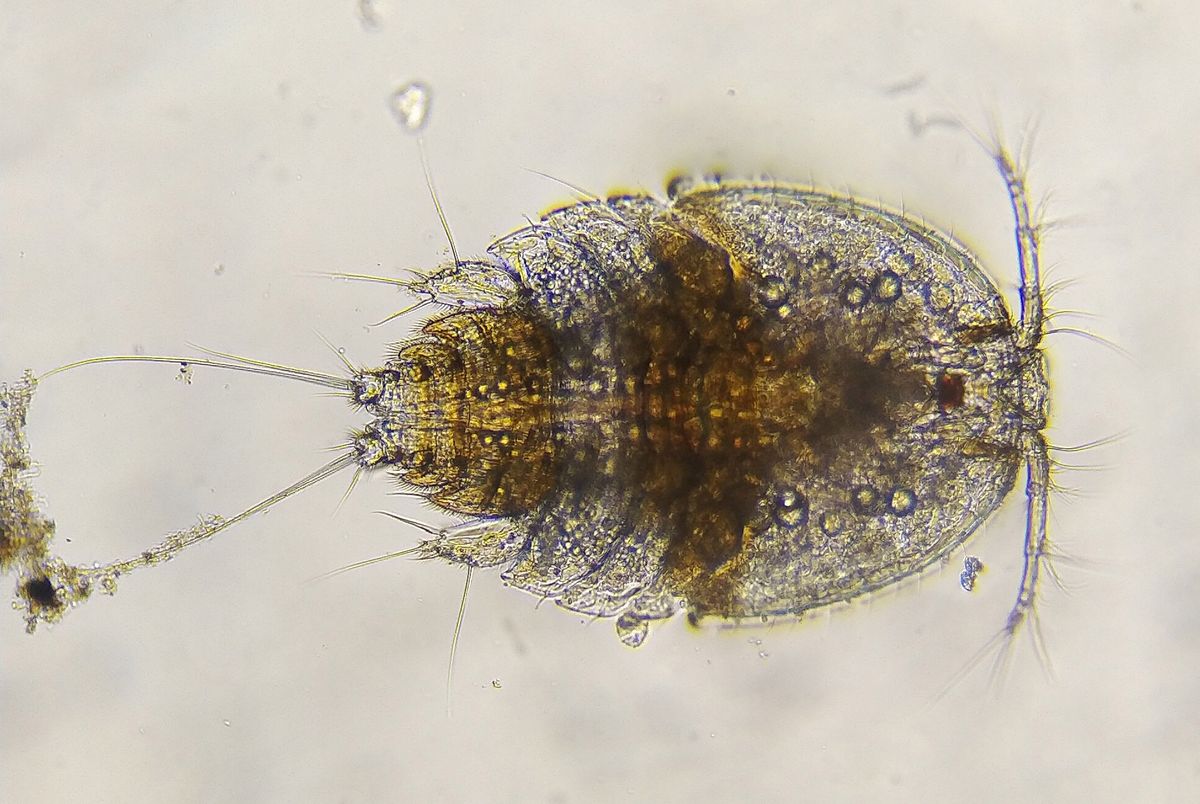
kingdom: Animalia
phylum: Arthropoda
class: Copepoda
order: Harpacticoida
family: Harpacticidae
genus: Zaus
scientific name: Zaus abbreviatus
